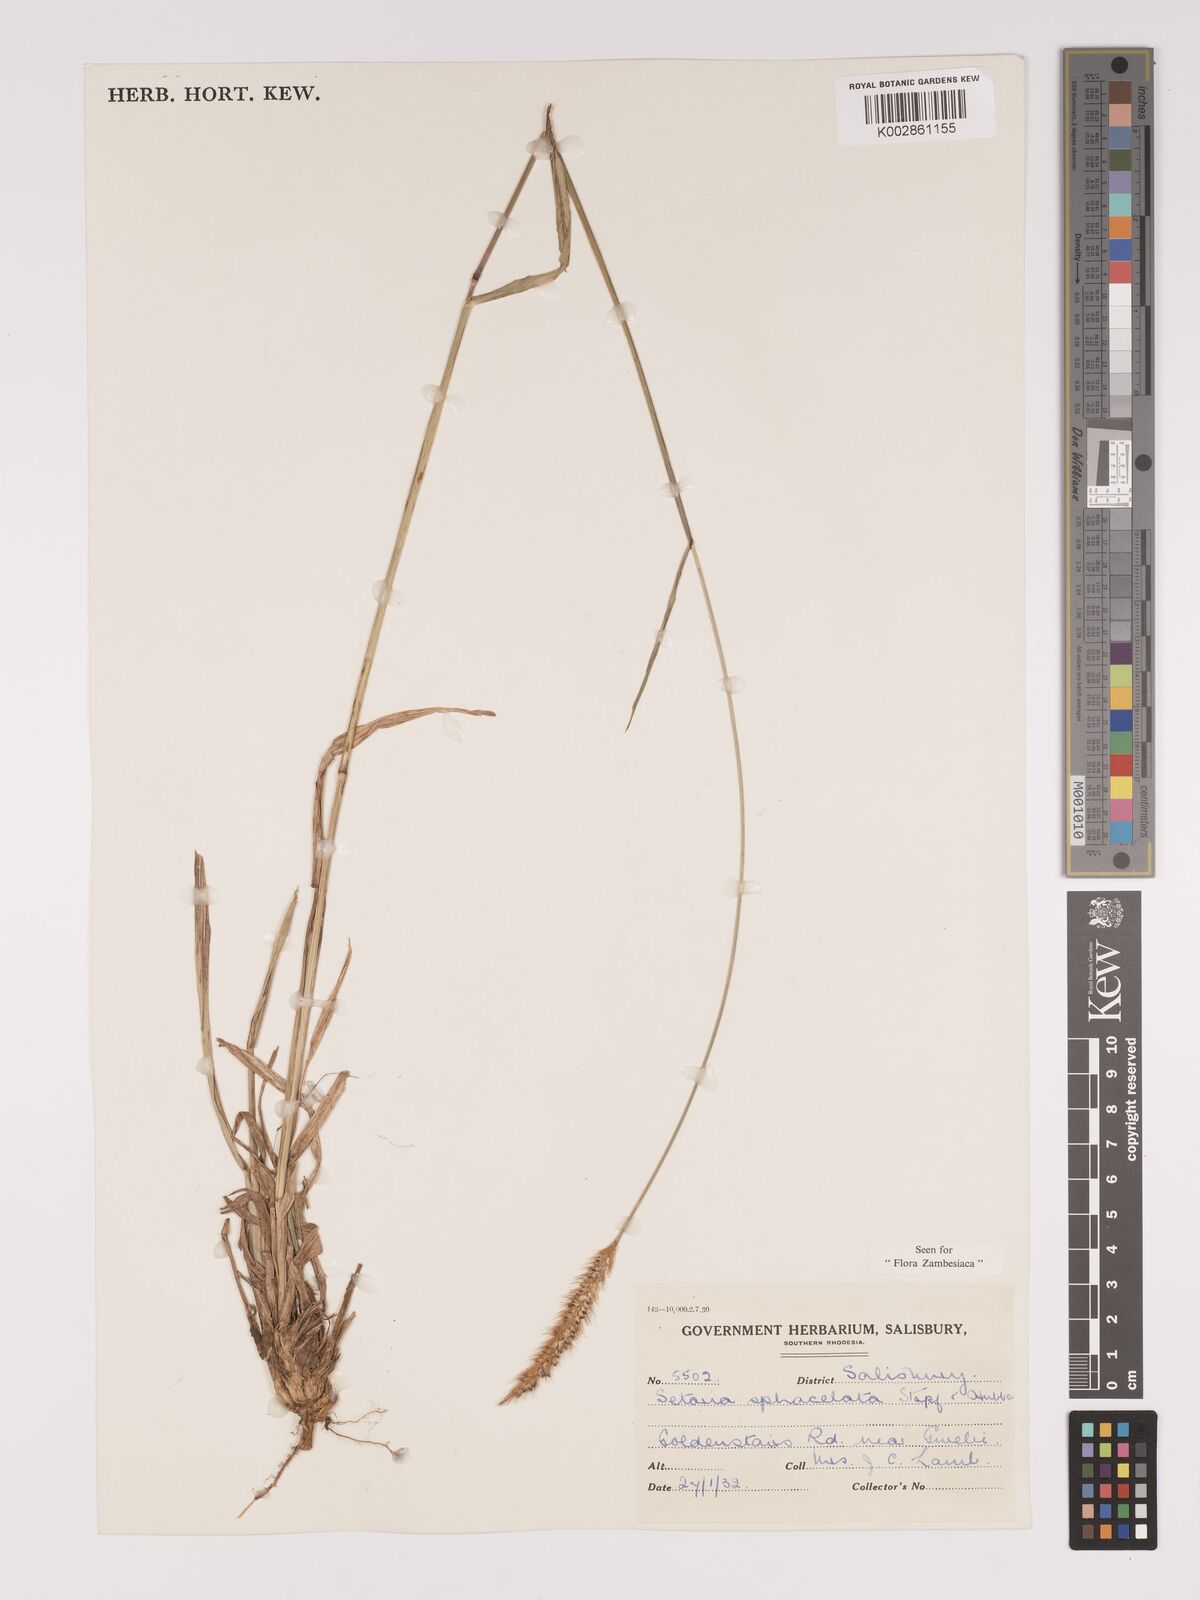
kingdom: Plantae
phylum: Tracheophyta
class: Liliopsida
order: Poales
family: Poaceae
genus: Setaria
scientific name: Setaria sphacelata
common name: African bristlegrass
